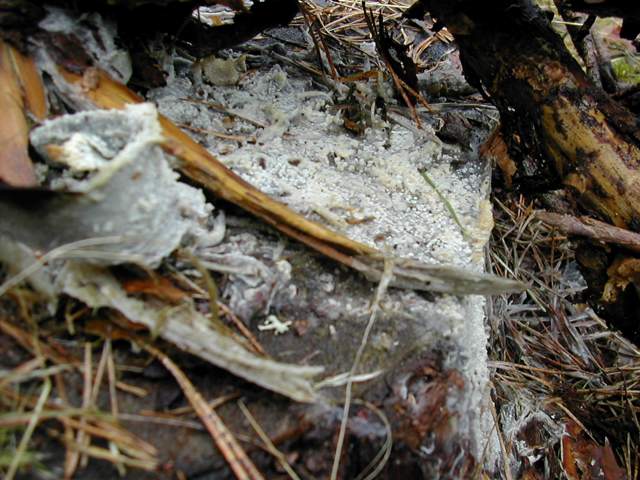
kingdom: Fungi
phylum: Basidiomycota
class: Agaricomycetes
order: Polyporales
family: Phanerochaetaceae
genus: Phlebiopsis
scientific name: Phlebiopsis gigantea
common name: kæmpebarksvamp
